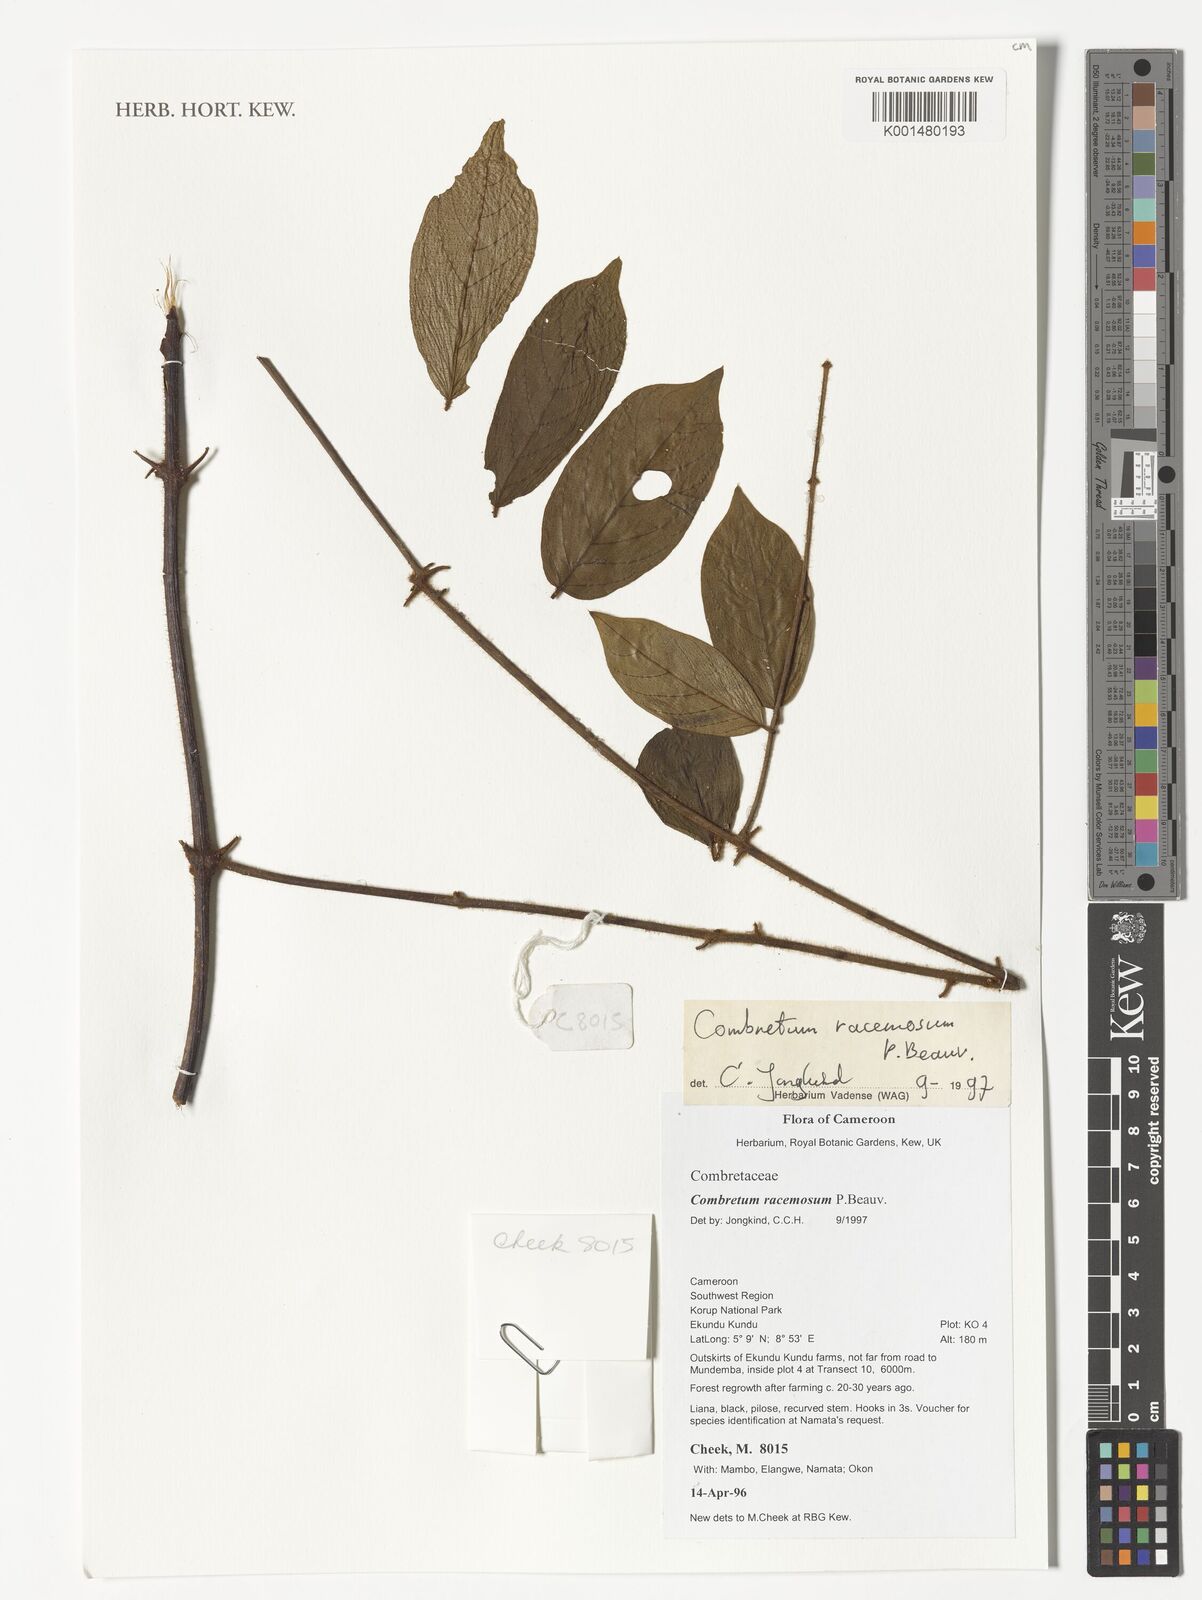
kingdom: Plantae
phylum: Tracheophyta
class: Magnoliopsida
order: Myrtales
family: Combretaceae
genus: Combretum
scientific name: Combretum racemosum
